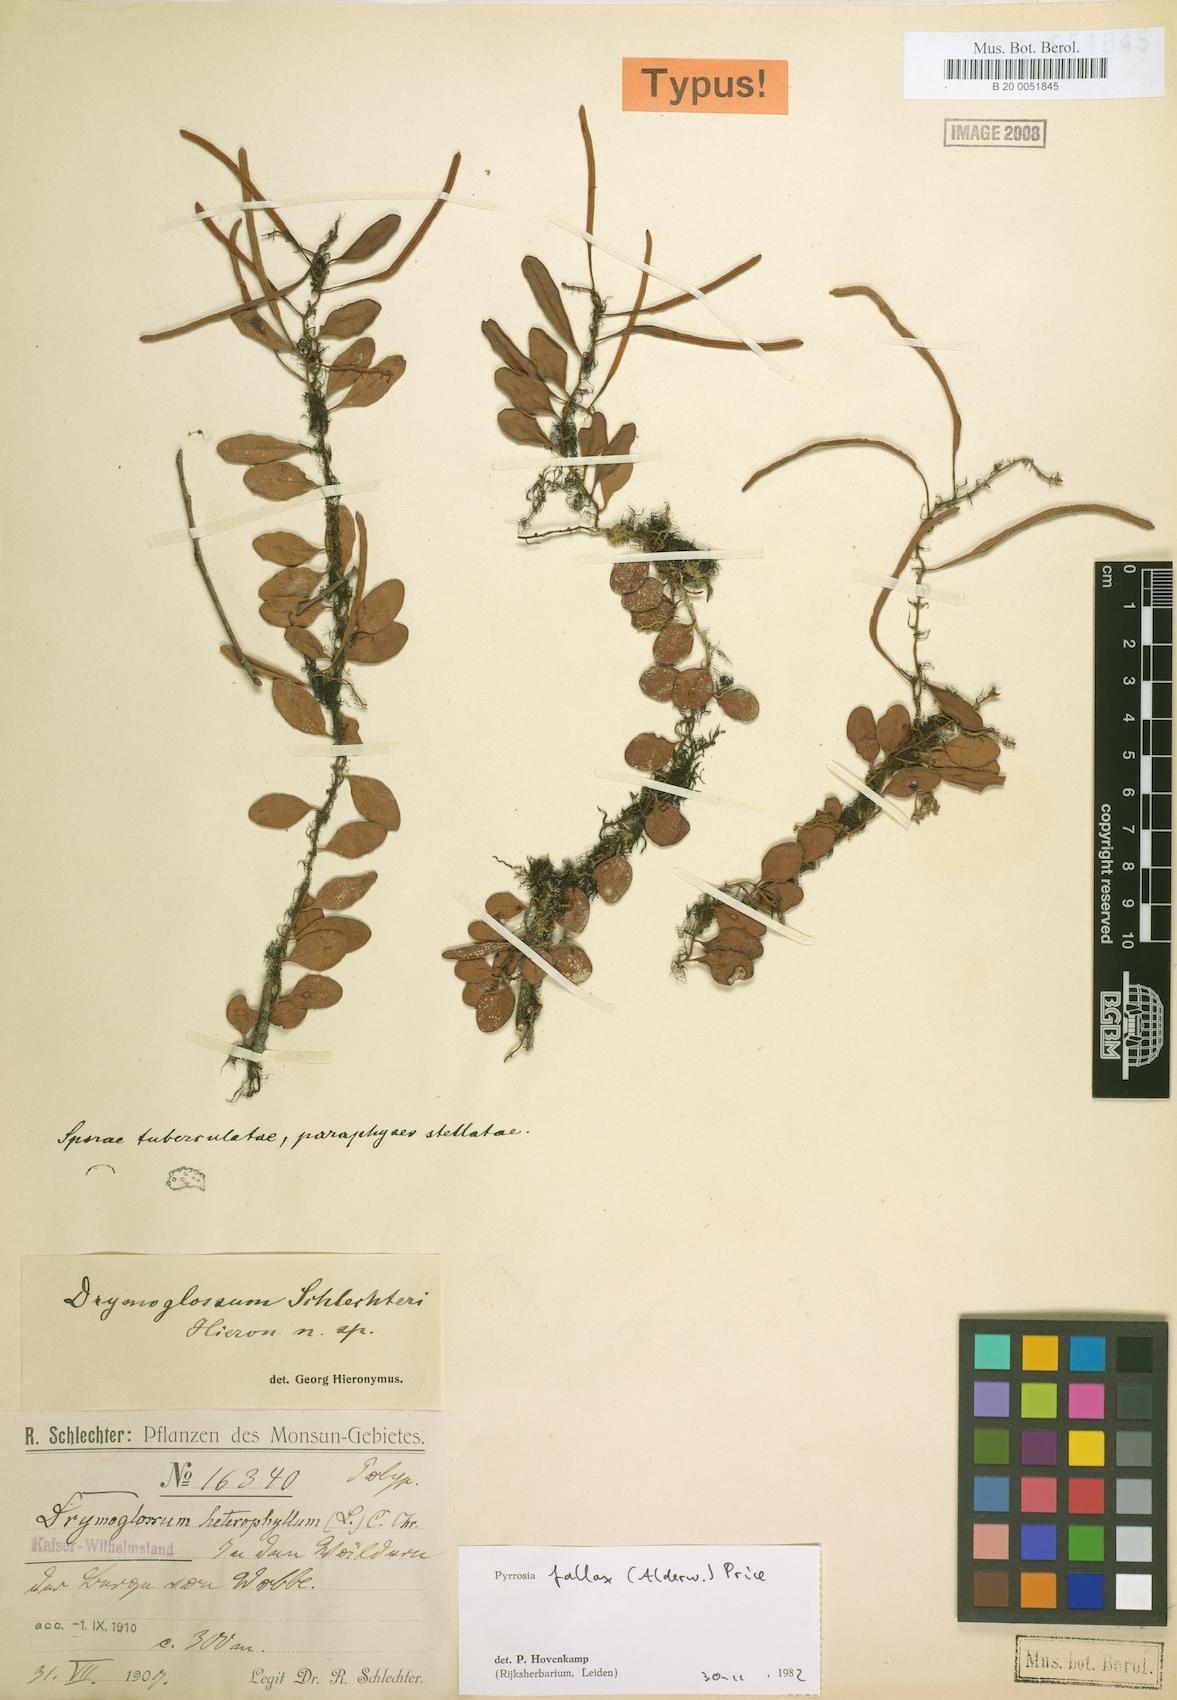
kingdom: Plantae
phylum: Tracheophyta
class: Polypodiopsida
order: Polypodiales
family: Polypodiaceae
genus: Pyrrosia
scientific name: Pyrrosia fallax
